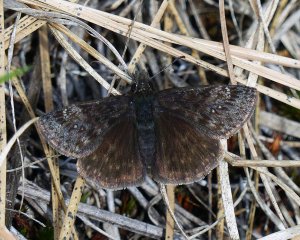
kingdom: Animalia
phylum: Arthropoda
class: Insecta
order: Lepidoptera
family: Hesperiidae
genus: Gesta
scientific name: Gesta
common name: Persius Duskywing
